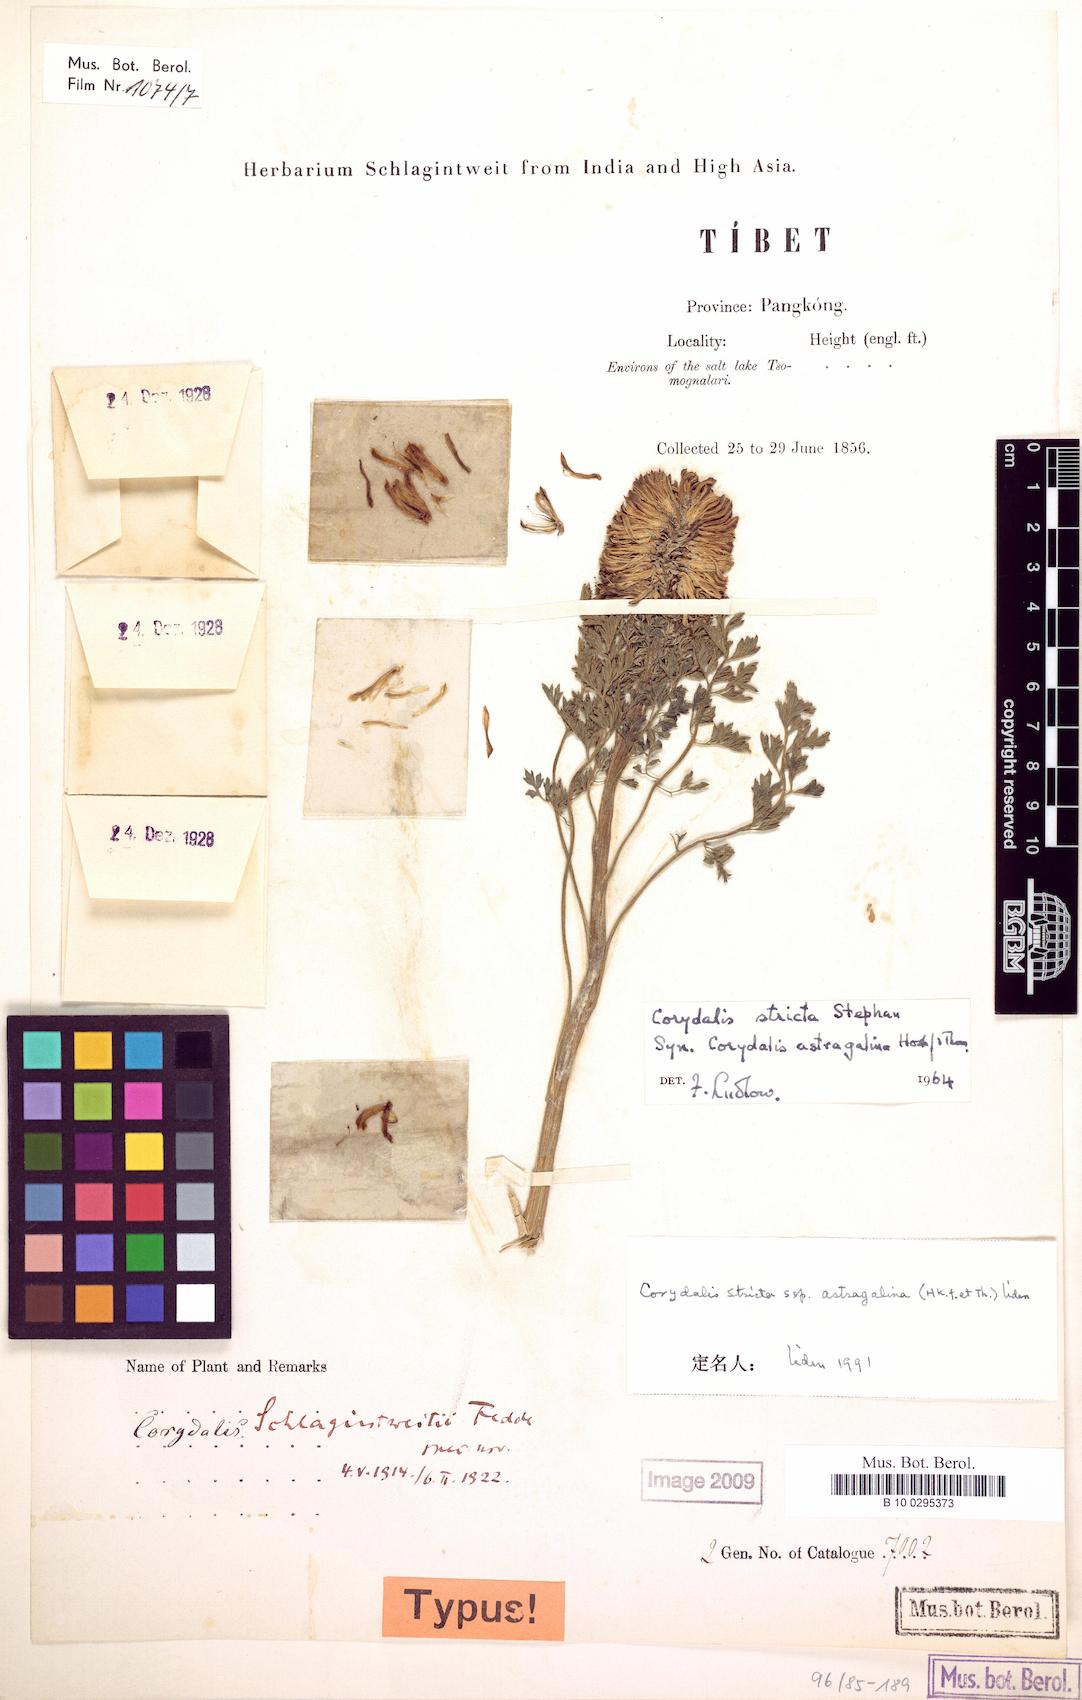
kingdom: Plantae
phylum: Tracheophyta
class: Magnoliopsida
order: Ranunculales
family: Papaveraceae
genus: Corydalis
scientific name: Corydalis stricta
